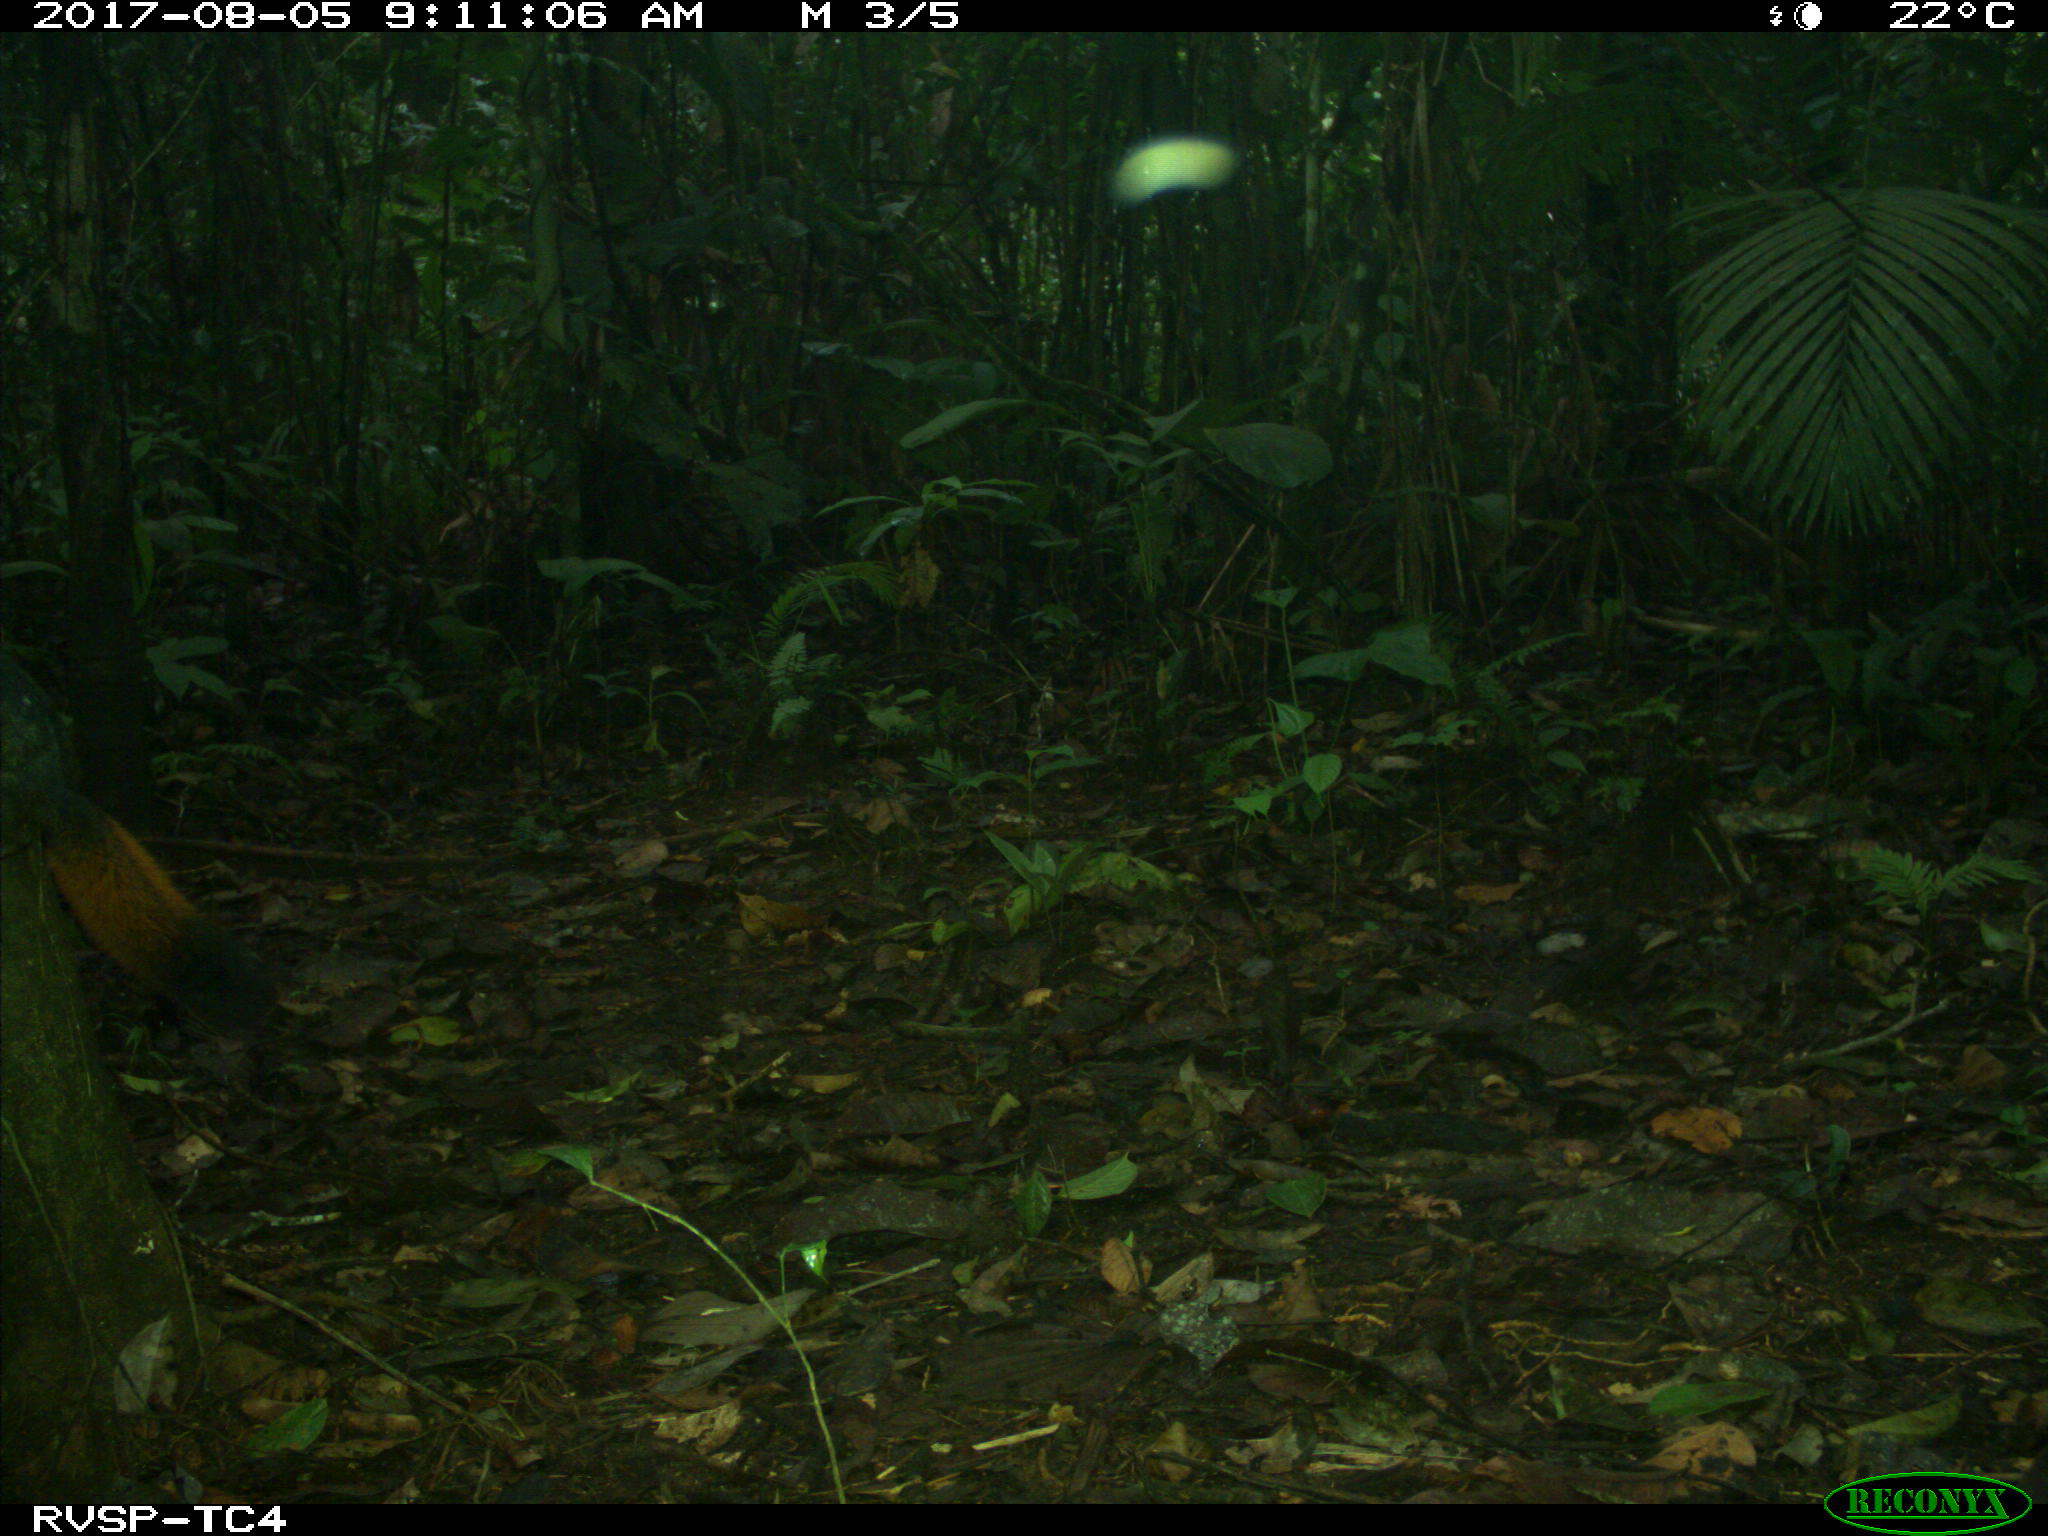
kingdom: Animalia
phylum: Chordata
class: Mammalia
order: Rodentia
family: Sciuridae
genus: Sciurus
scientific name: Sciurus granatensis
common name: Red-tailed squirrel
